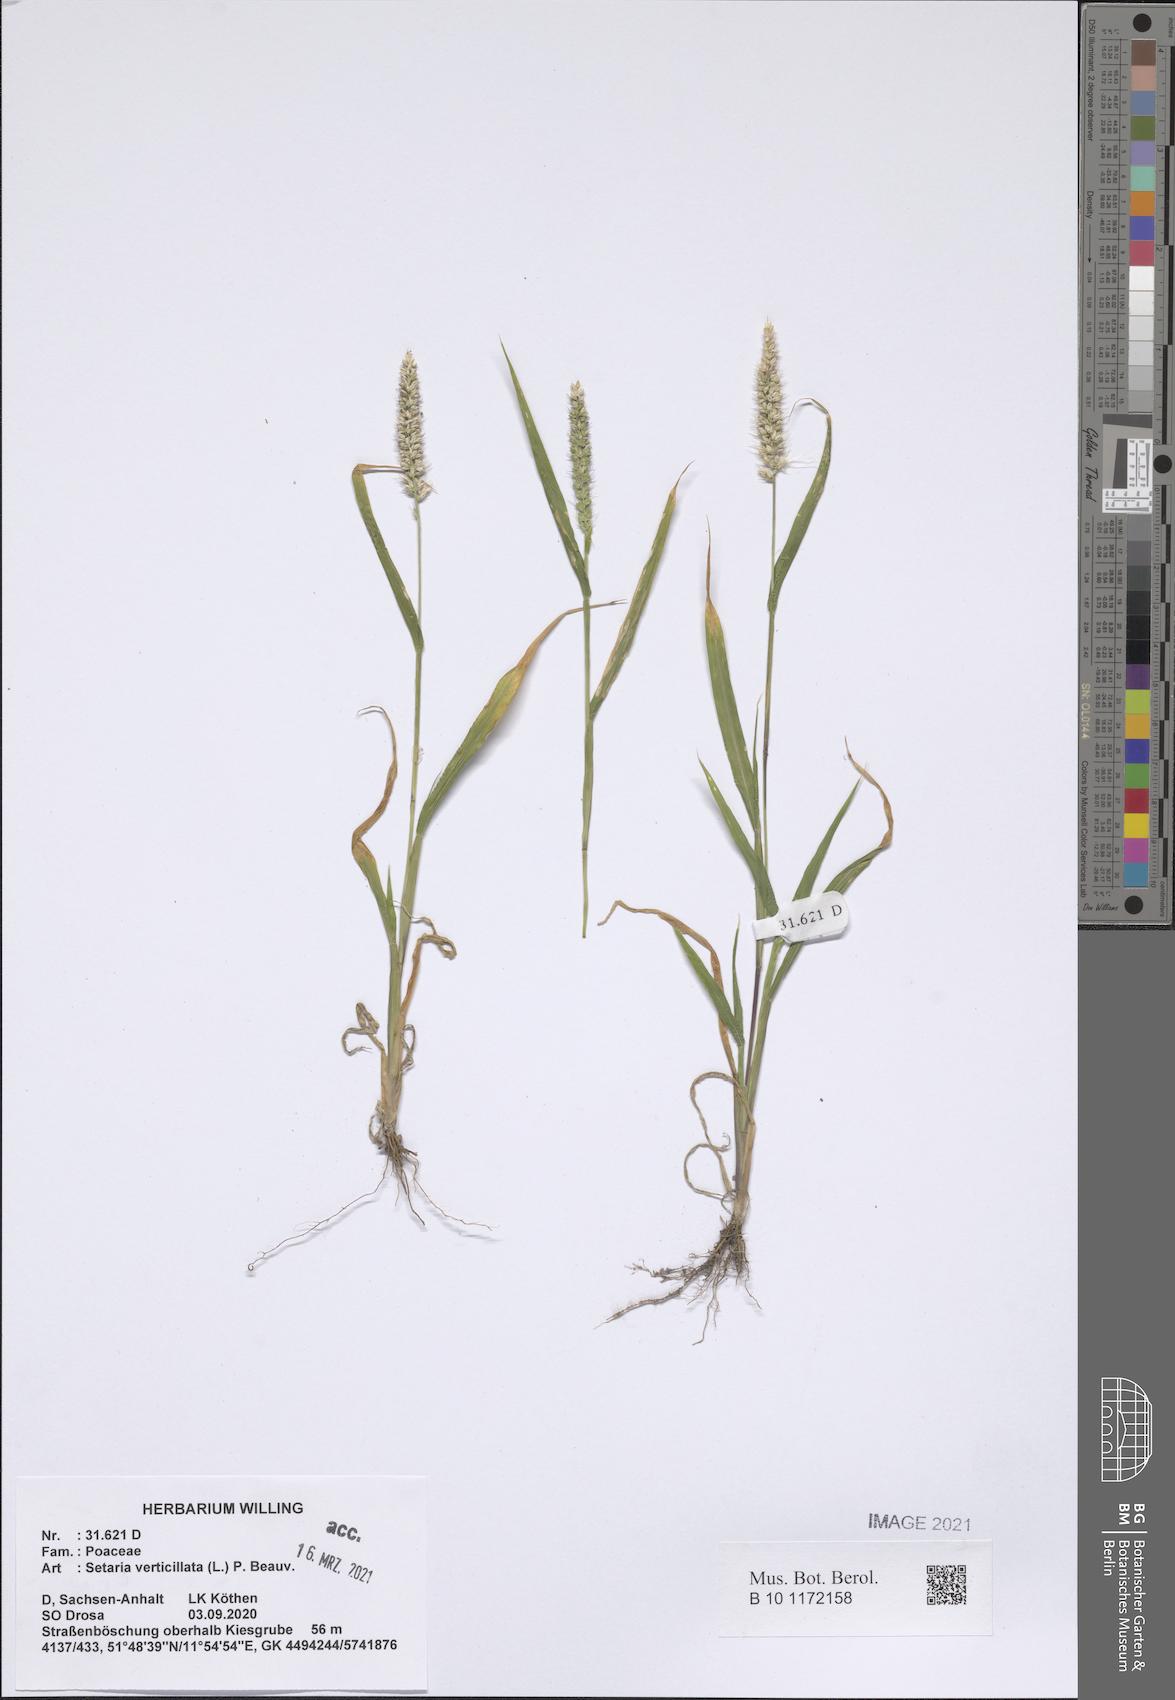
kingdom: Plantae
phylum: Tracheophyta
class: Liliopsida
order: Poales
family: Poaceae
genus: Setaria
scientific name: Setaria verticillata
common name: Hooked bristlegrass
